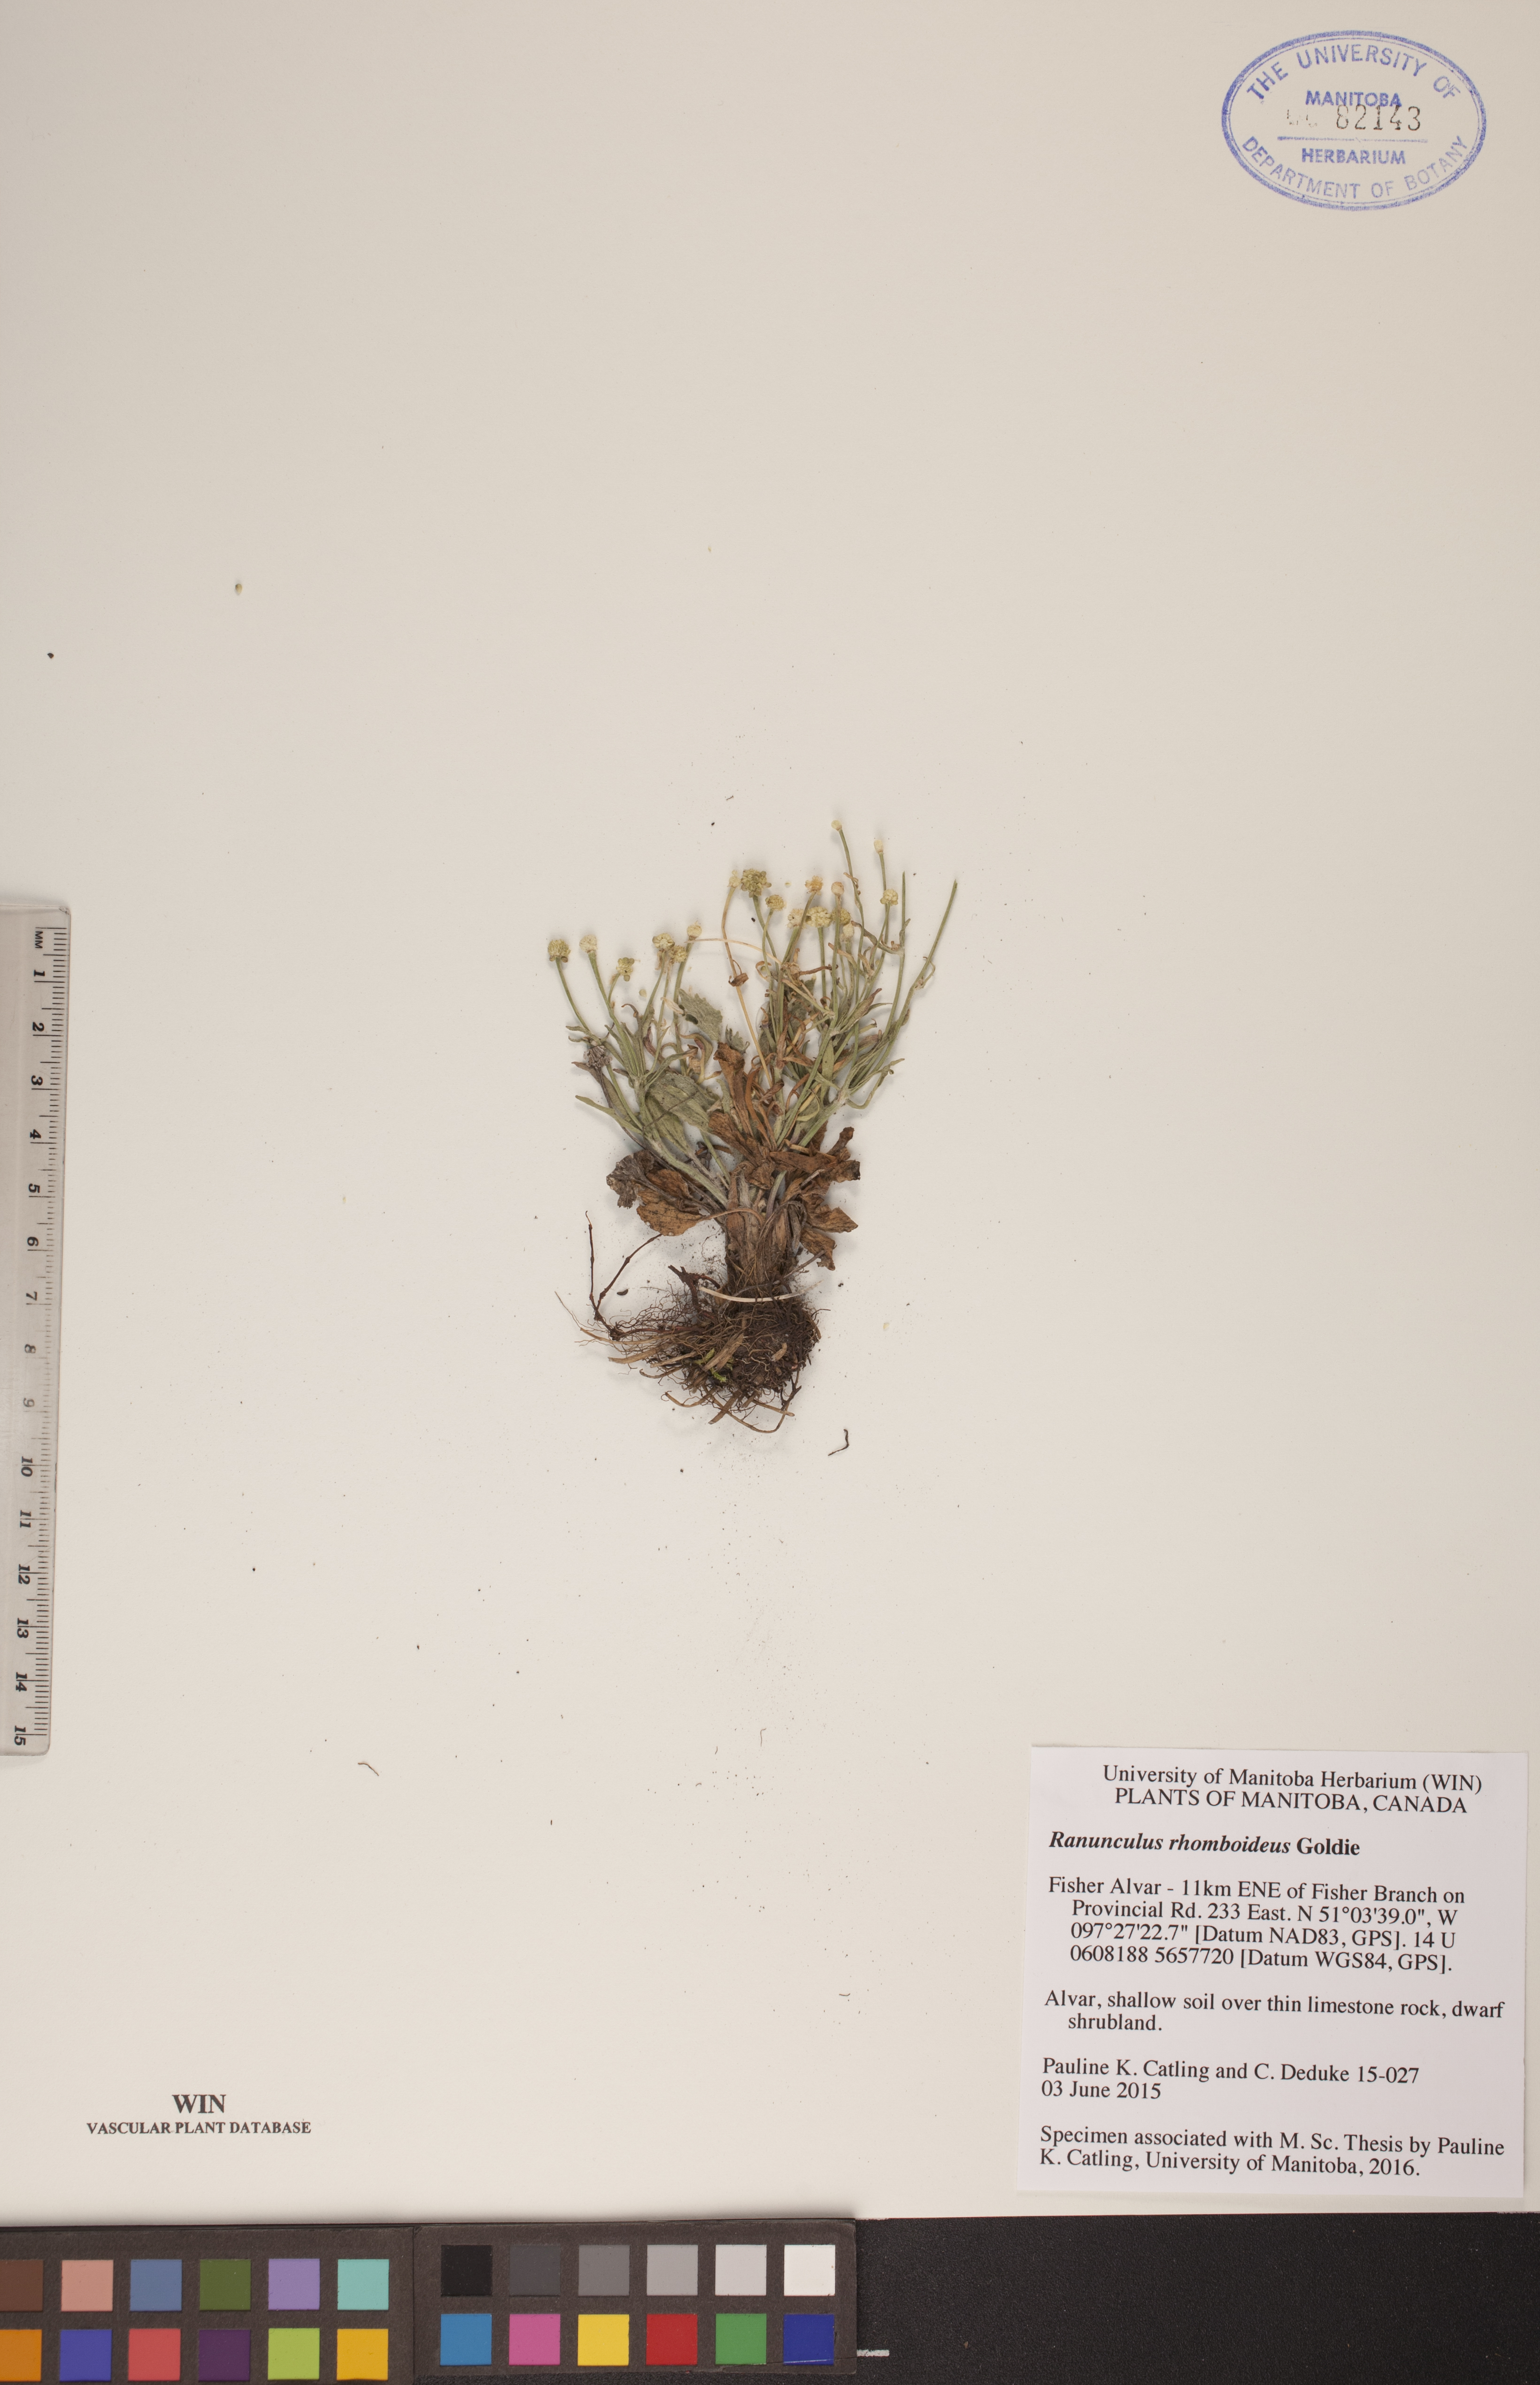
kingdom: Plantae
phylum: Tracheophyta
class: Magnoliopsida
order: Ranunculales
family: Ranunculaceae
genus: Ranunculus
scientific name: Ranunculus rhomboideus
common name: Prairie buttercup
